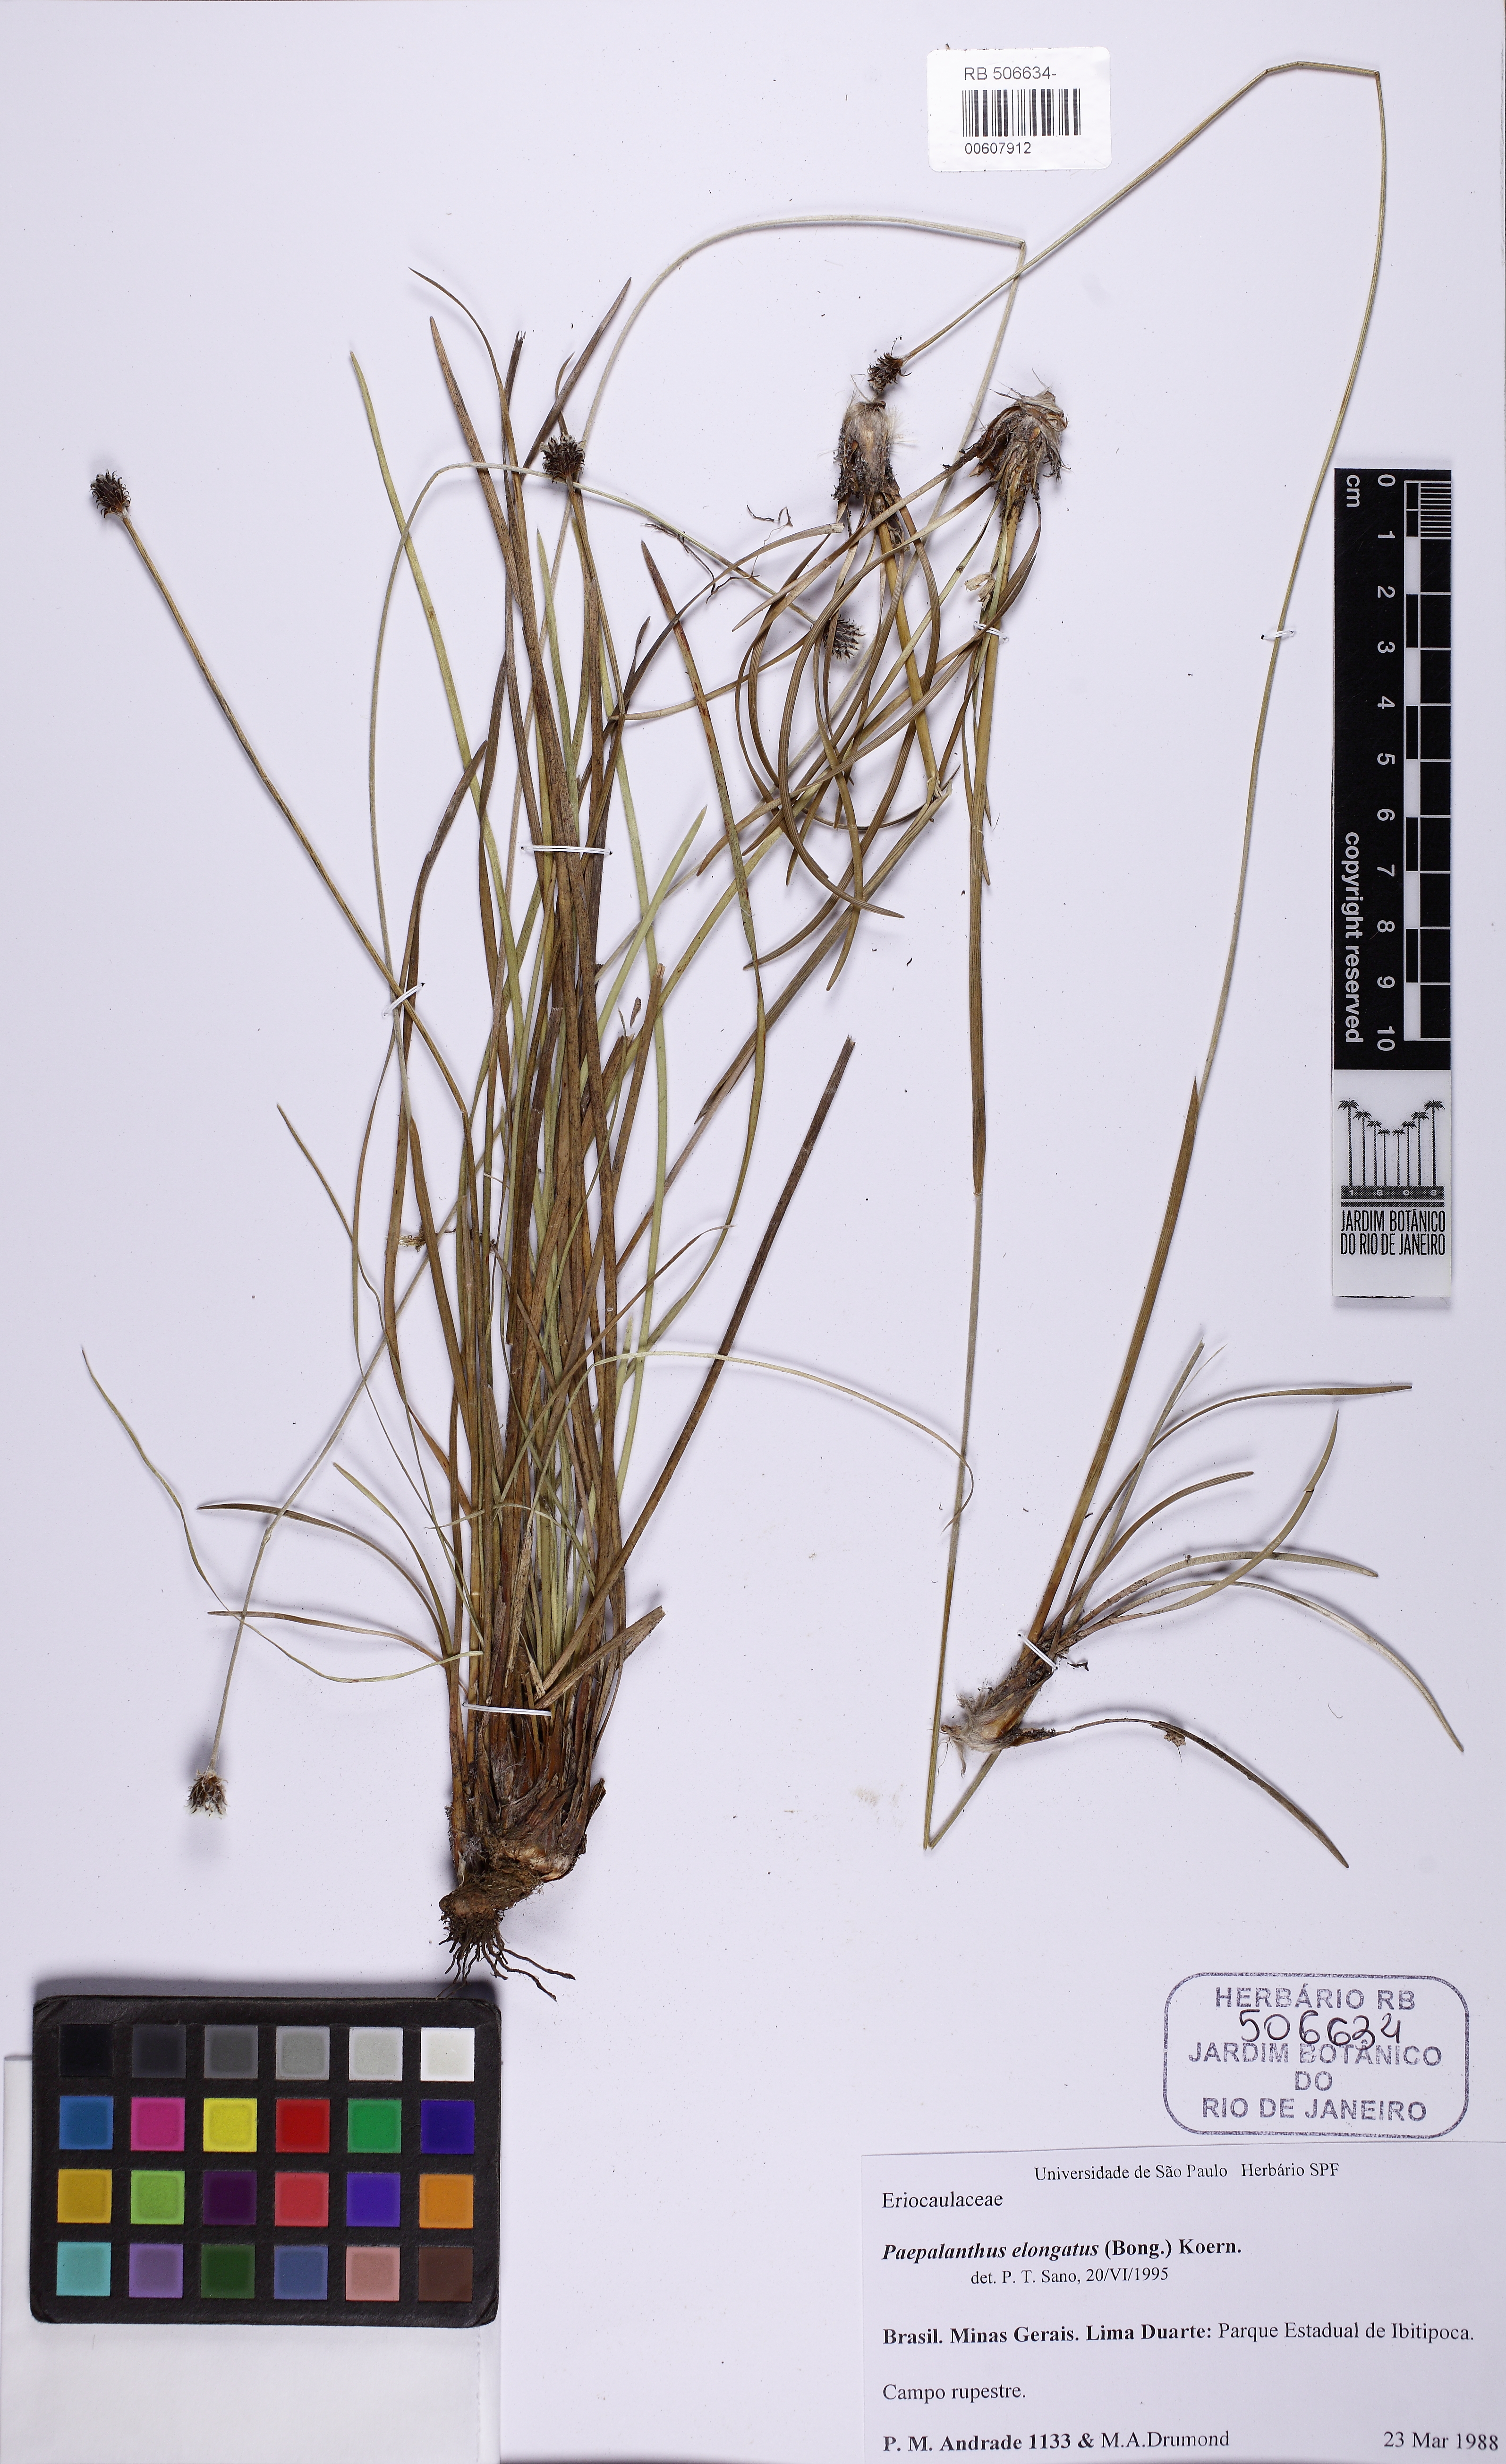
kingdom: Plantae
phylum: Tracheophyta
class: Liliopsida
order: Poales
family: Eriocaulaceae
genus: Paepalanthus
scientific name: Paepalanthus elongatus
